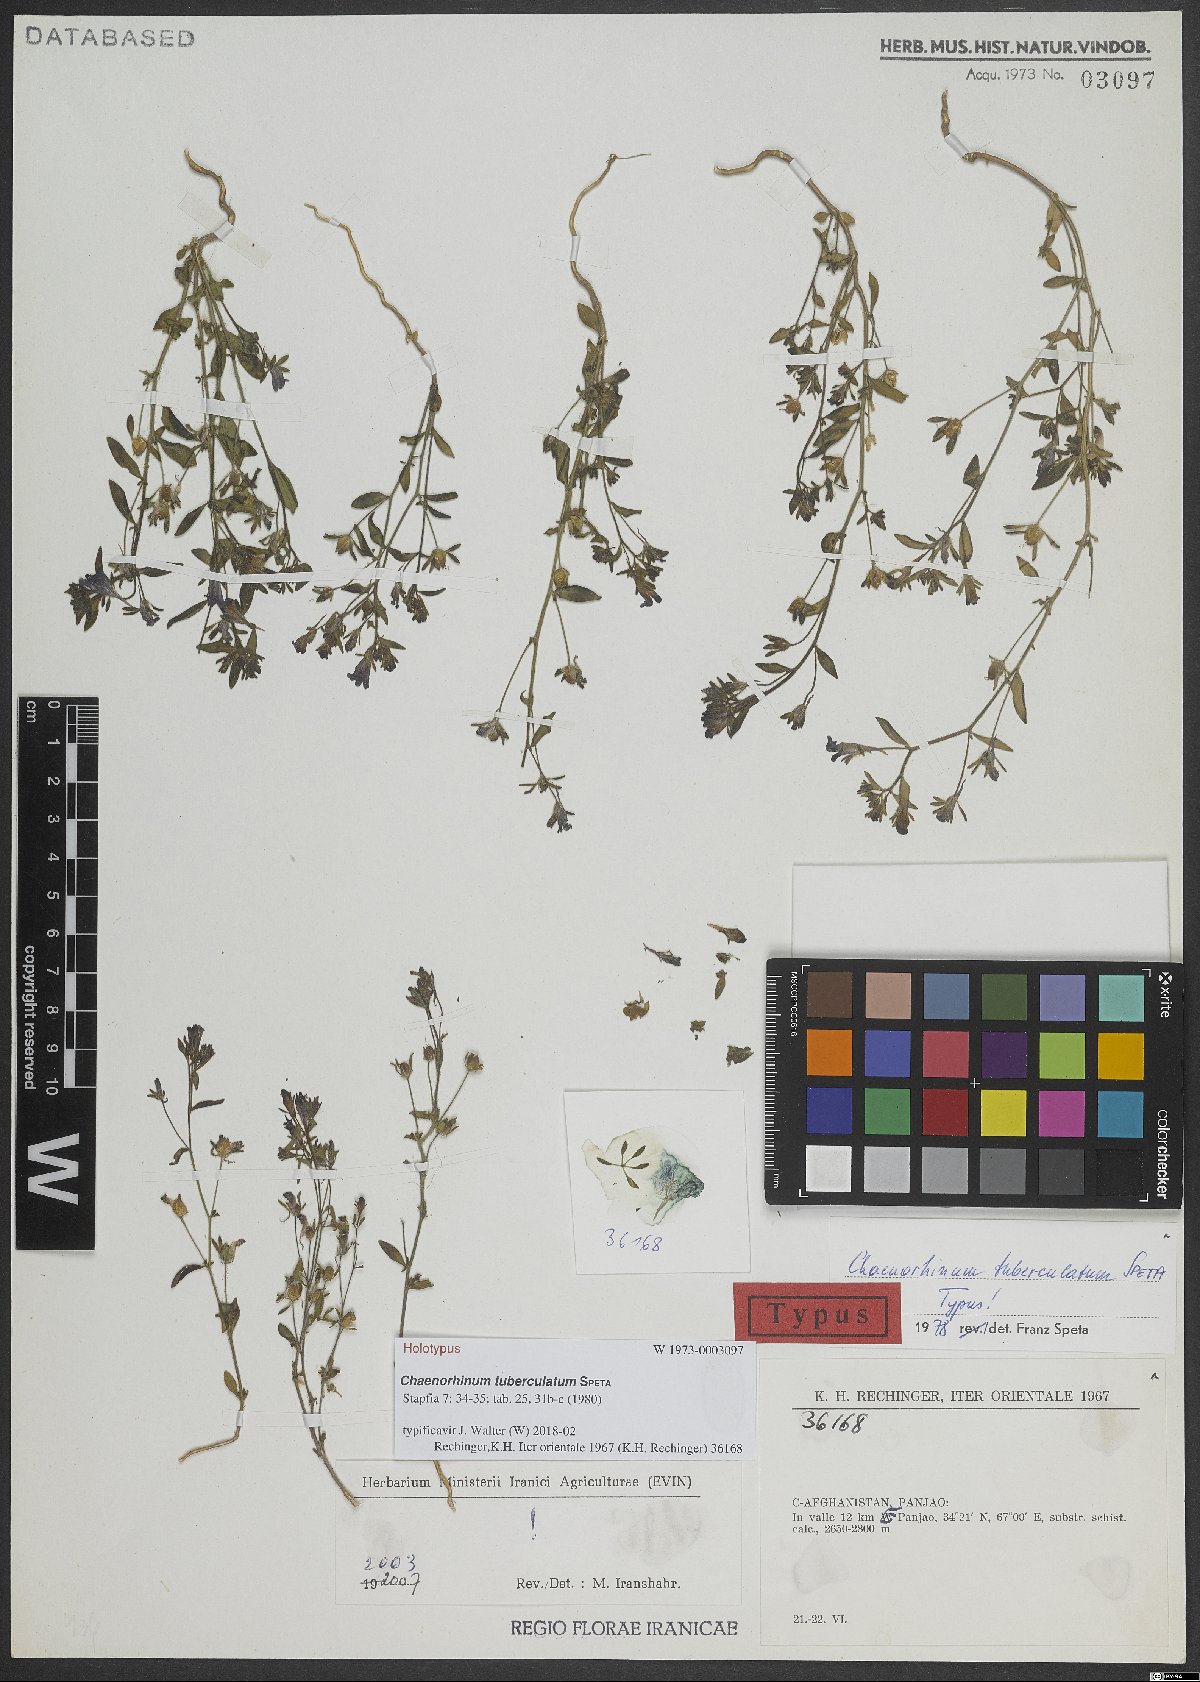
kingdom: Plantae
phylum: Tracheophyta
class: Magnoliopsida
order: Lamiales
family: Plantaginaceae
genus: Chaenorhinum
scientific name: Chaenorhinum tuberculatum
